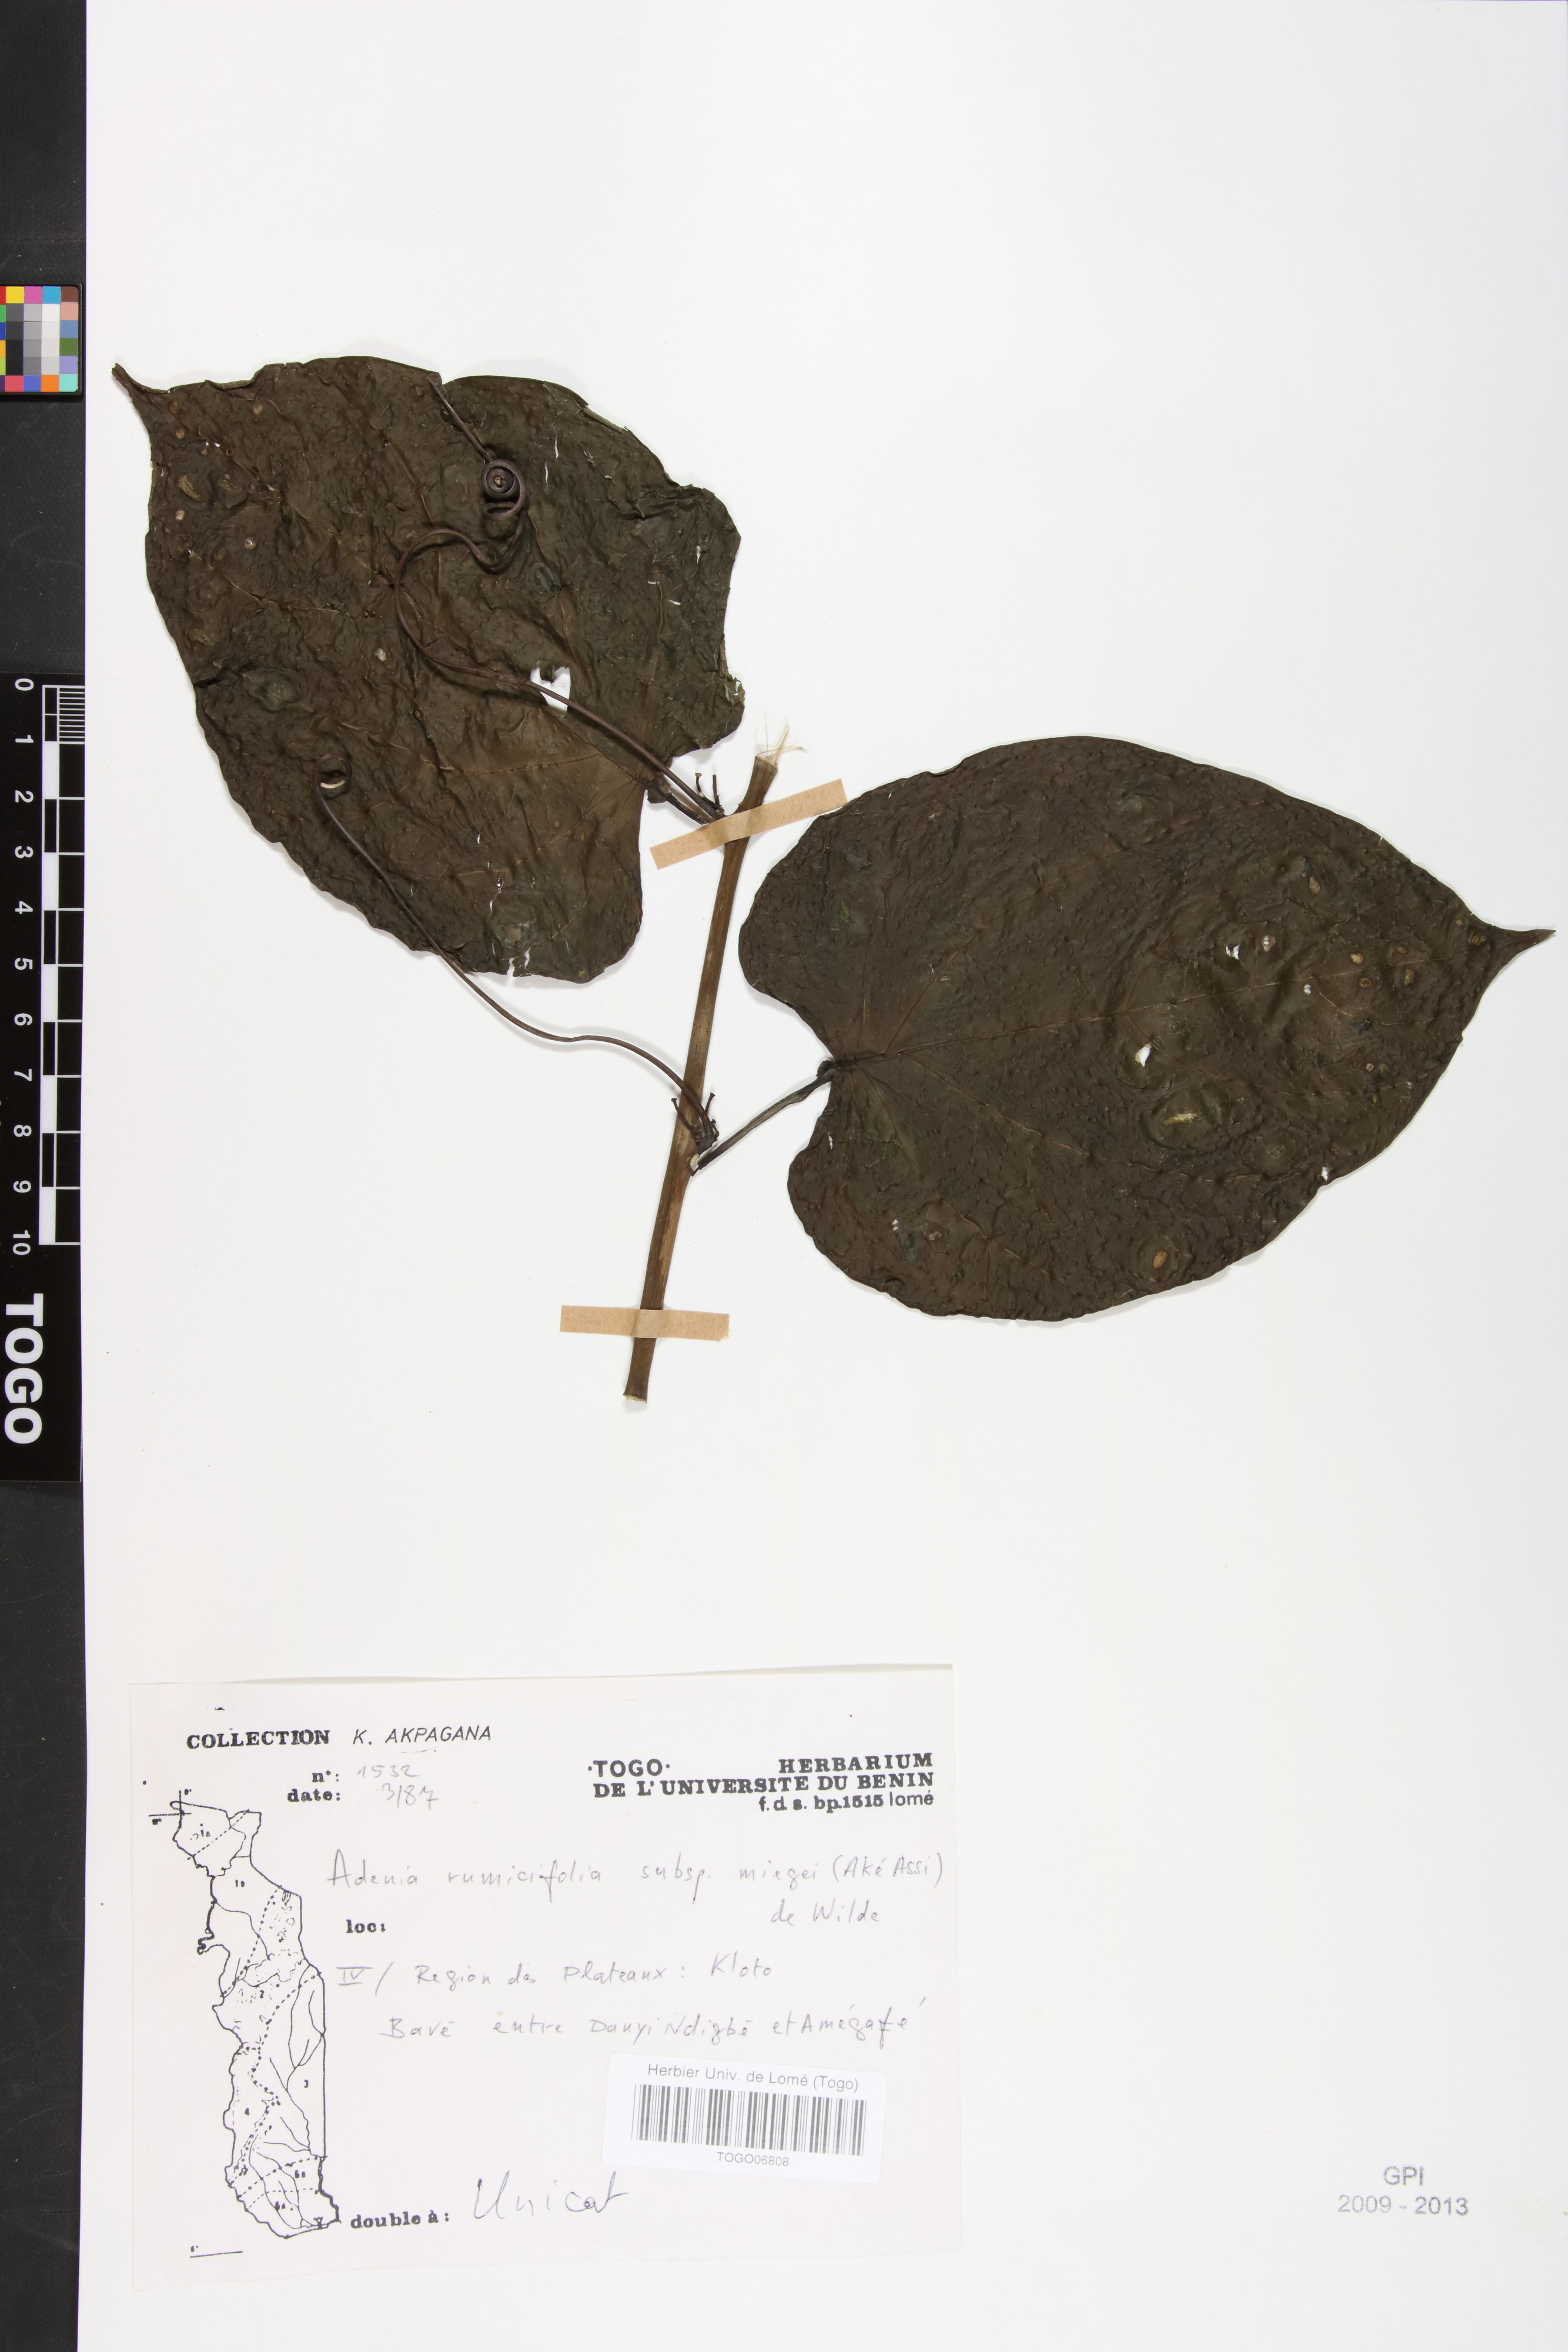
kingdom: Plantae
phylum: Tracheophyta
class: Magnoliopsida
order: Malpighiales
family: Passifloraceae
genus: Adenia
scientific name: Adenia lobata
